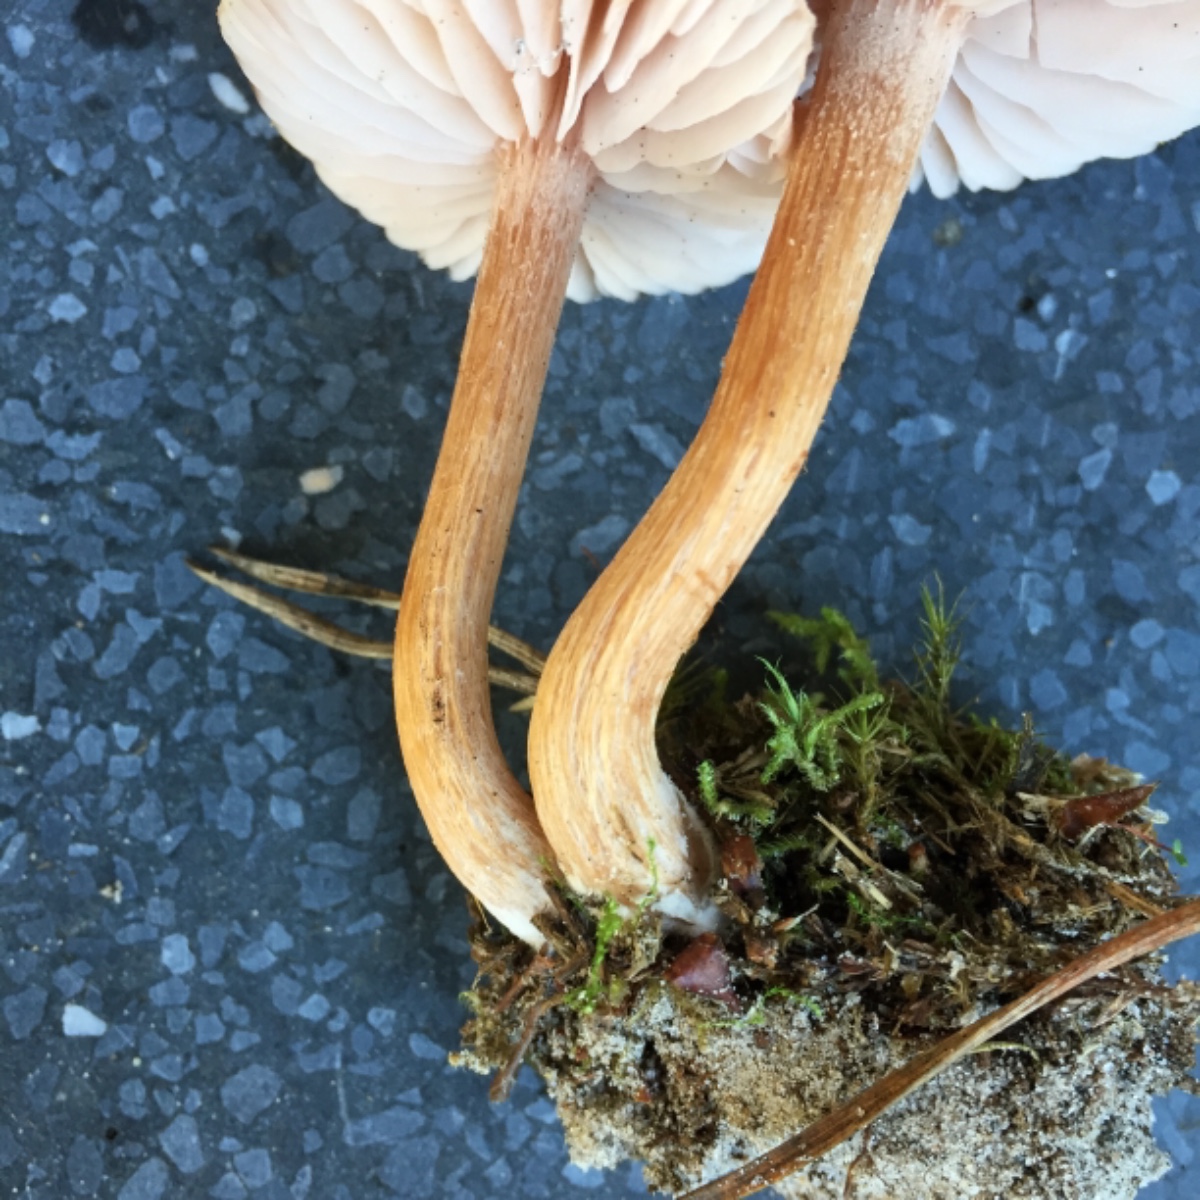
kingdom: Fungi
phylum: Basidiomycota
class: Agaricomycetes
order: Agaricales
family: Hydnangiaceae
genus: Laccaria
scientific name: Laccaria proxima
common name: stor ametysthat
